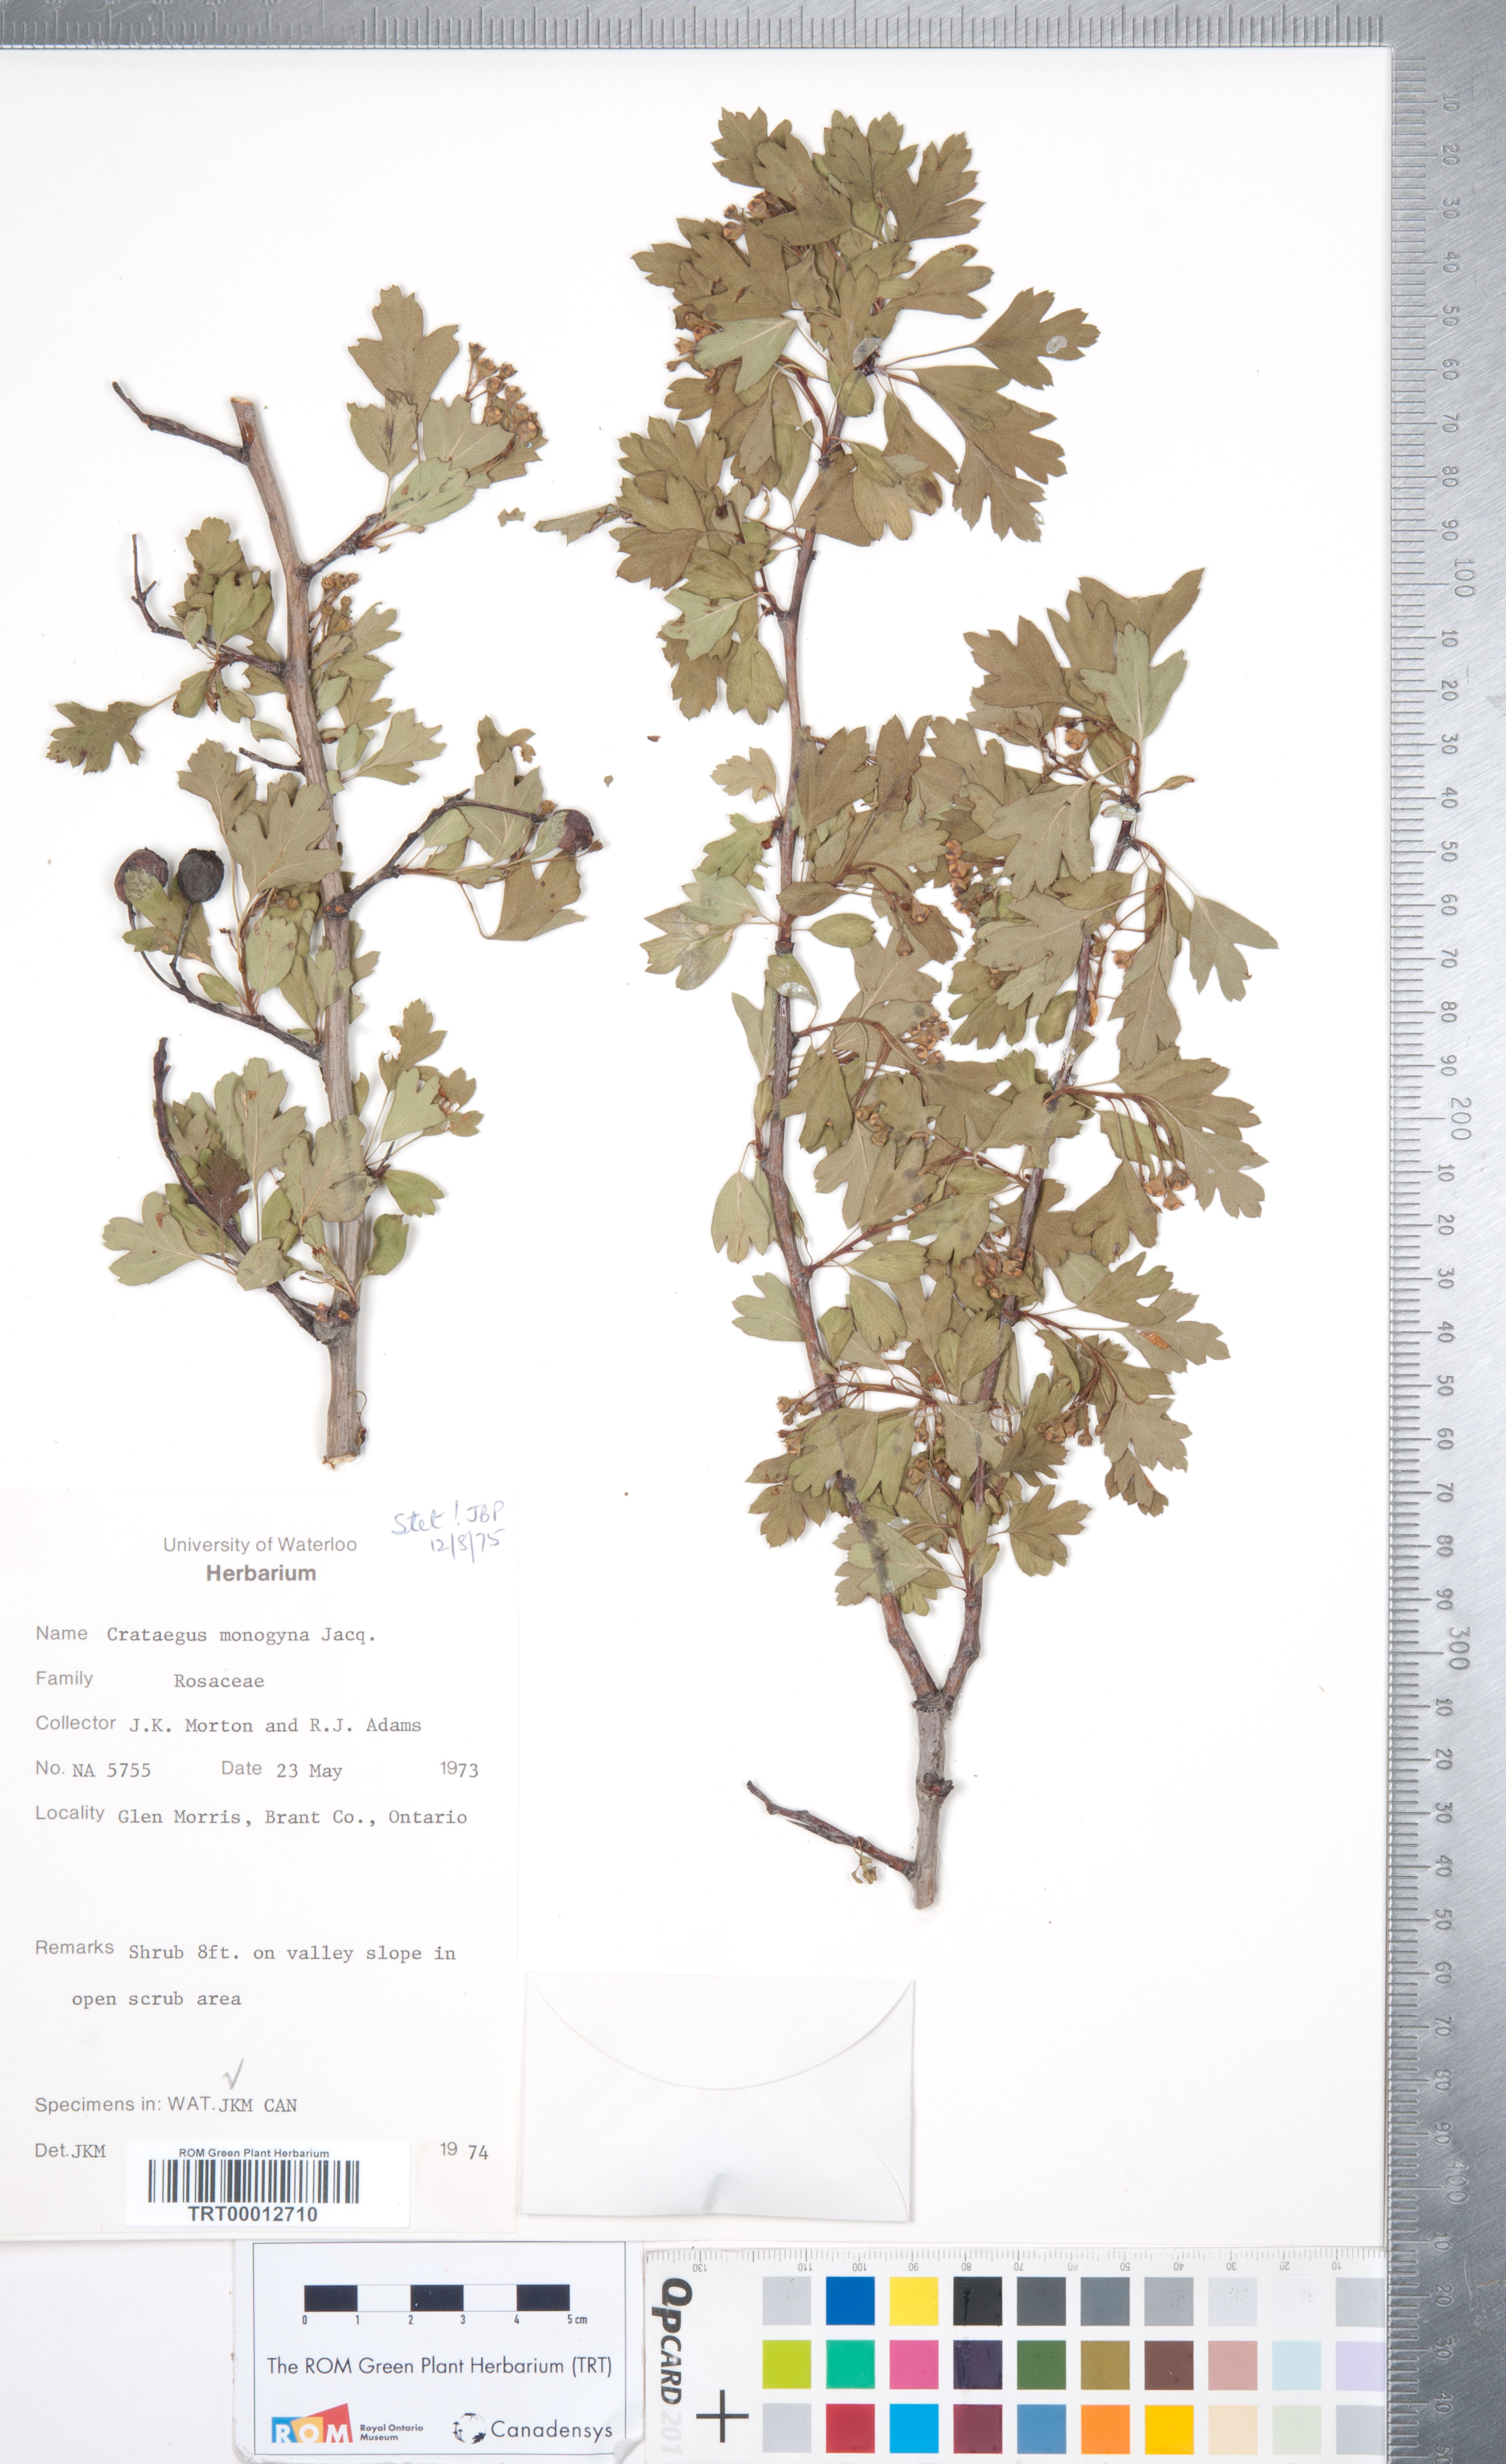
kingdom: Plantae
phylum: Tracheophyta
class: Magnoliopsida
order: Rosales
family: Rosaceae
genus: Crataegus
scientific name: Crataegus monogyna
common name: Hawthorn
